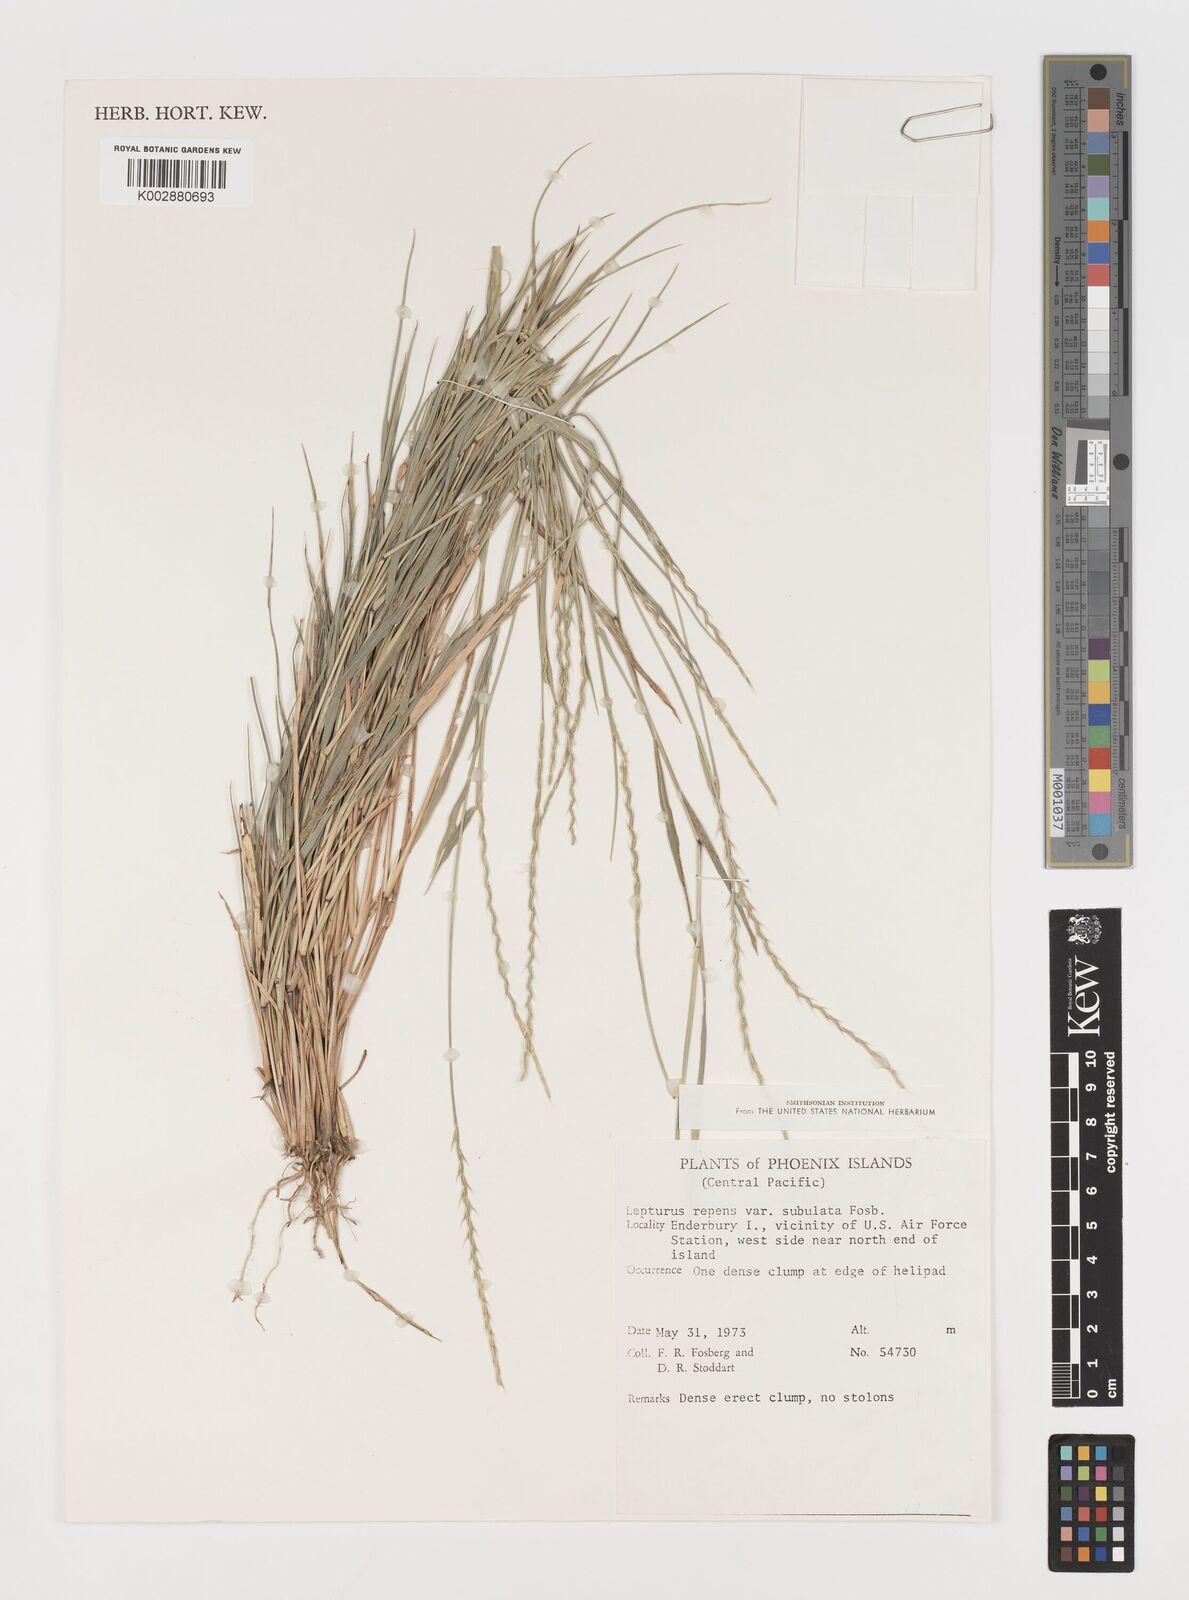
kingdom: Plantae
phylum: Tracheophyta
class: Liliopsida
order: Poales
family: Poaceae
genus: Lepturus
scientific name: Lepturus repens
